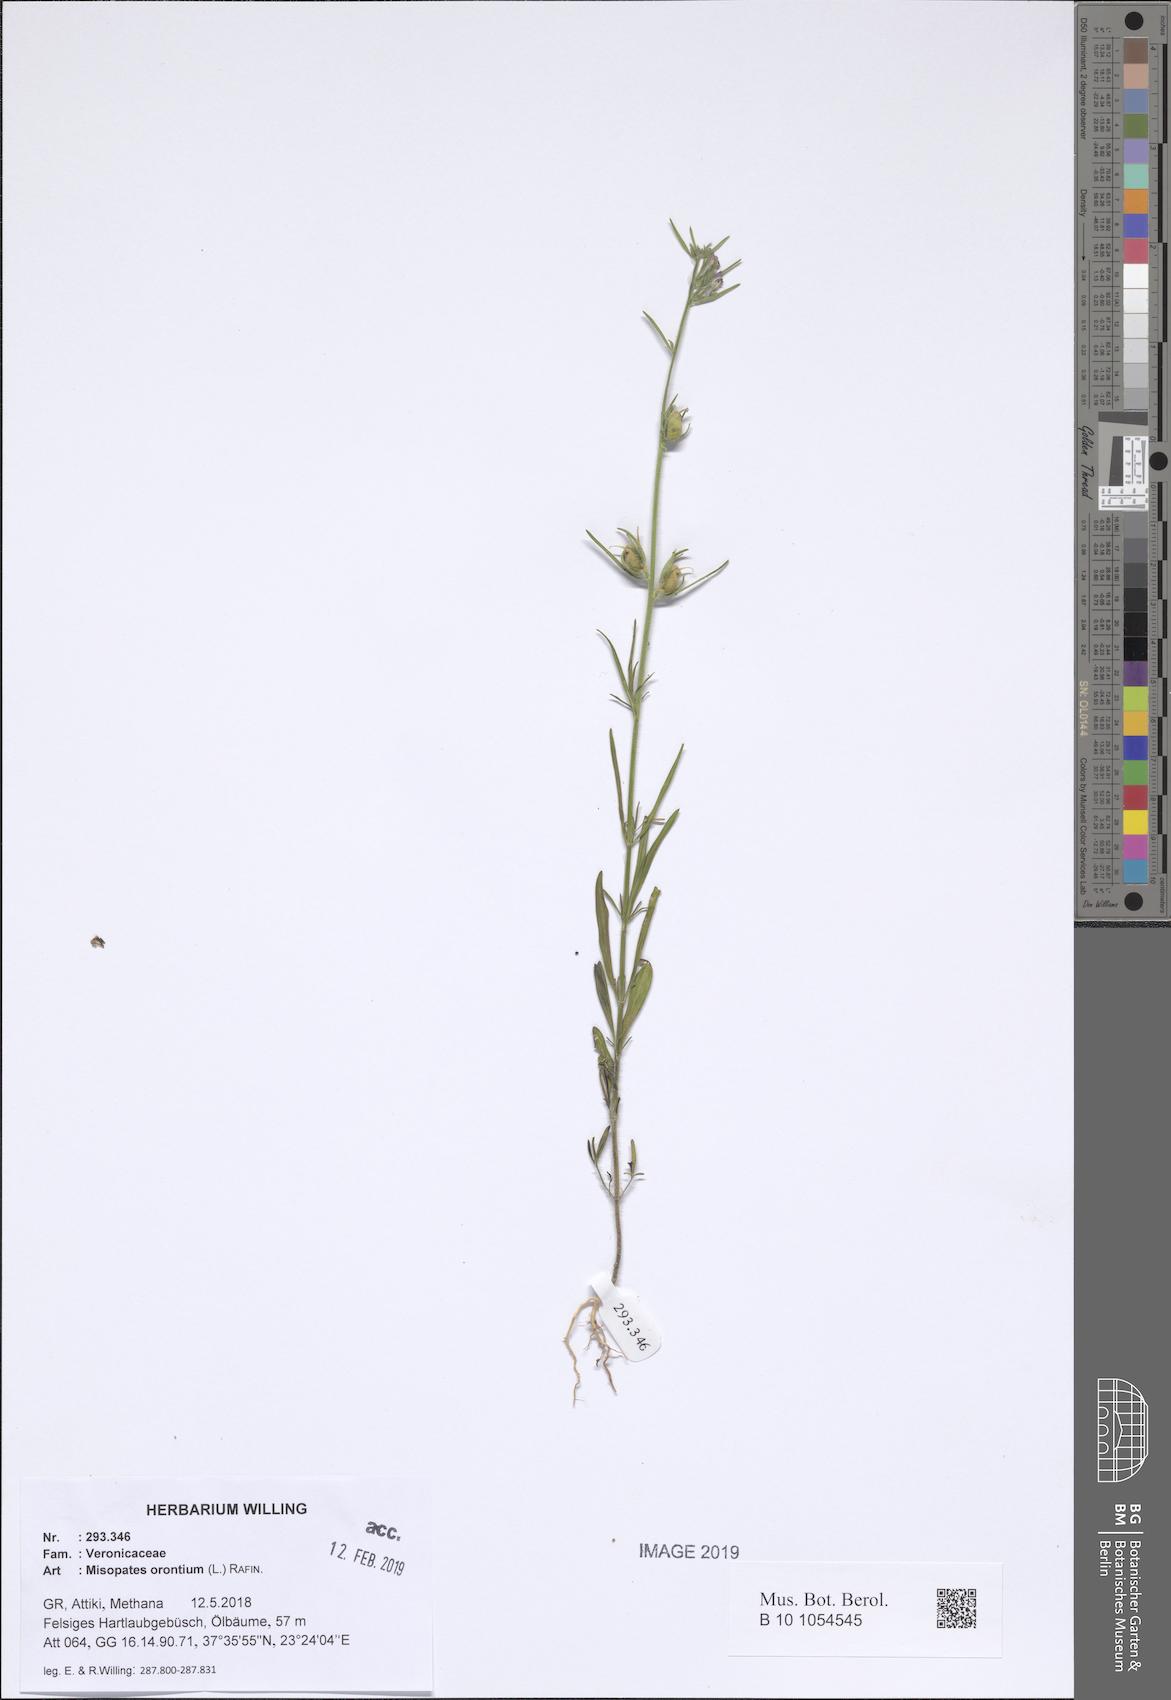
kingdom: Plantae
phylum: Tracheophyta
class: Magnoliopsida
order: Lamiales
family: Plantaginaceae
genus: Misopates
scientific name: Misopates orontium
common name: Weasel's-snout
